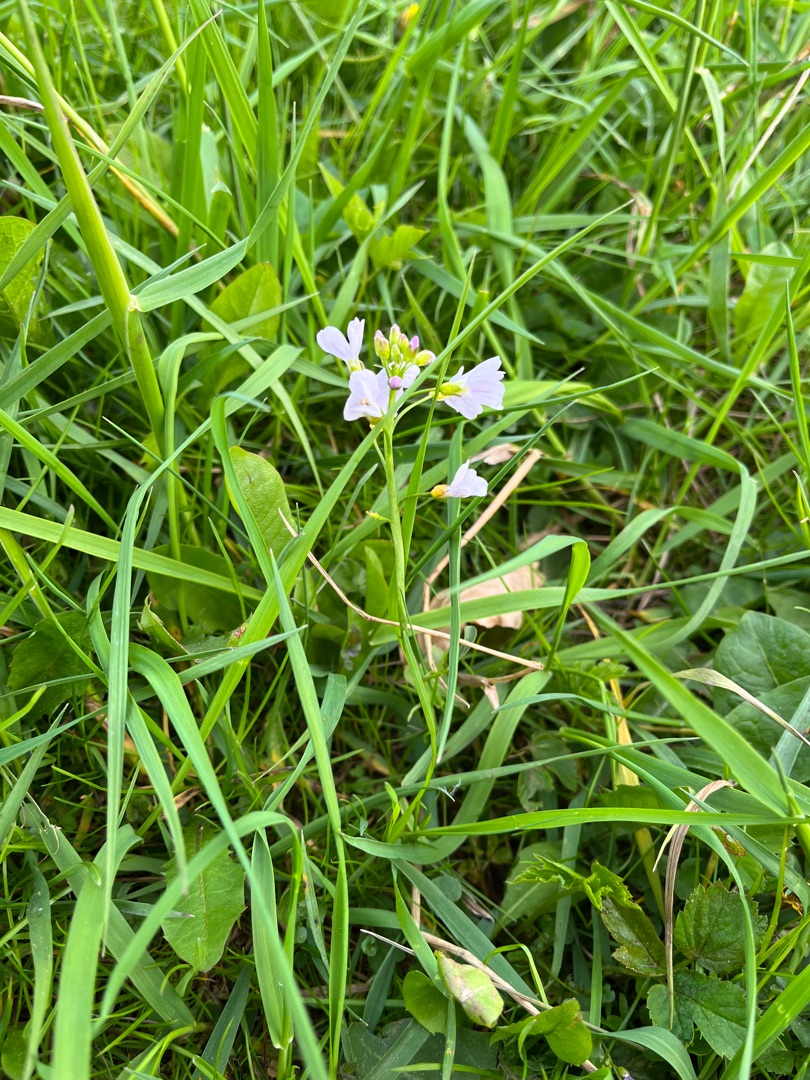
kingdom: Plantae
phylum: Tracheophyta
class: Magnoliopsida
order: Brassicales
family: Brassicaceae
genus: Cardamine
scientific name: Cardamine pratensis
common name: Engkarse
